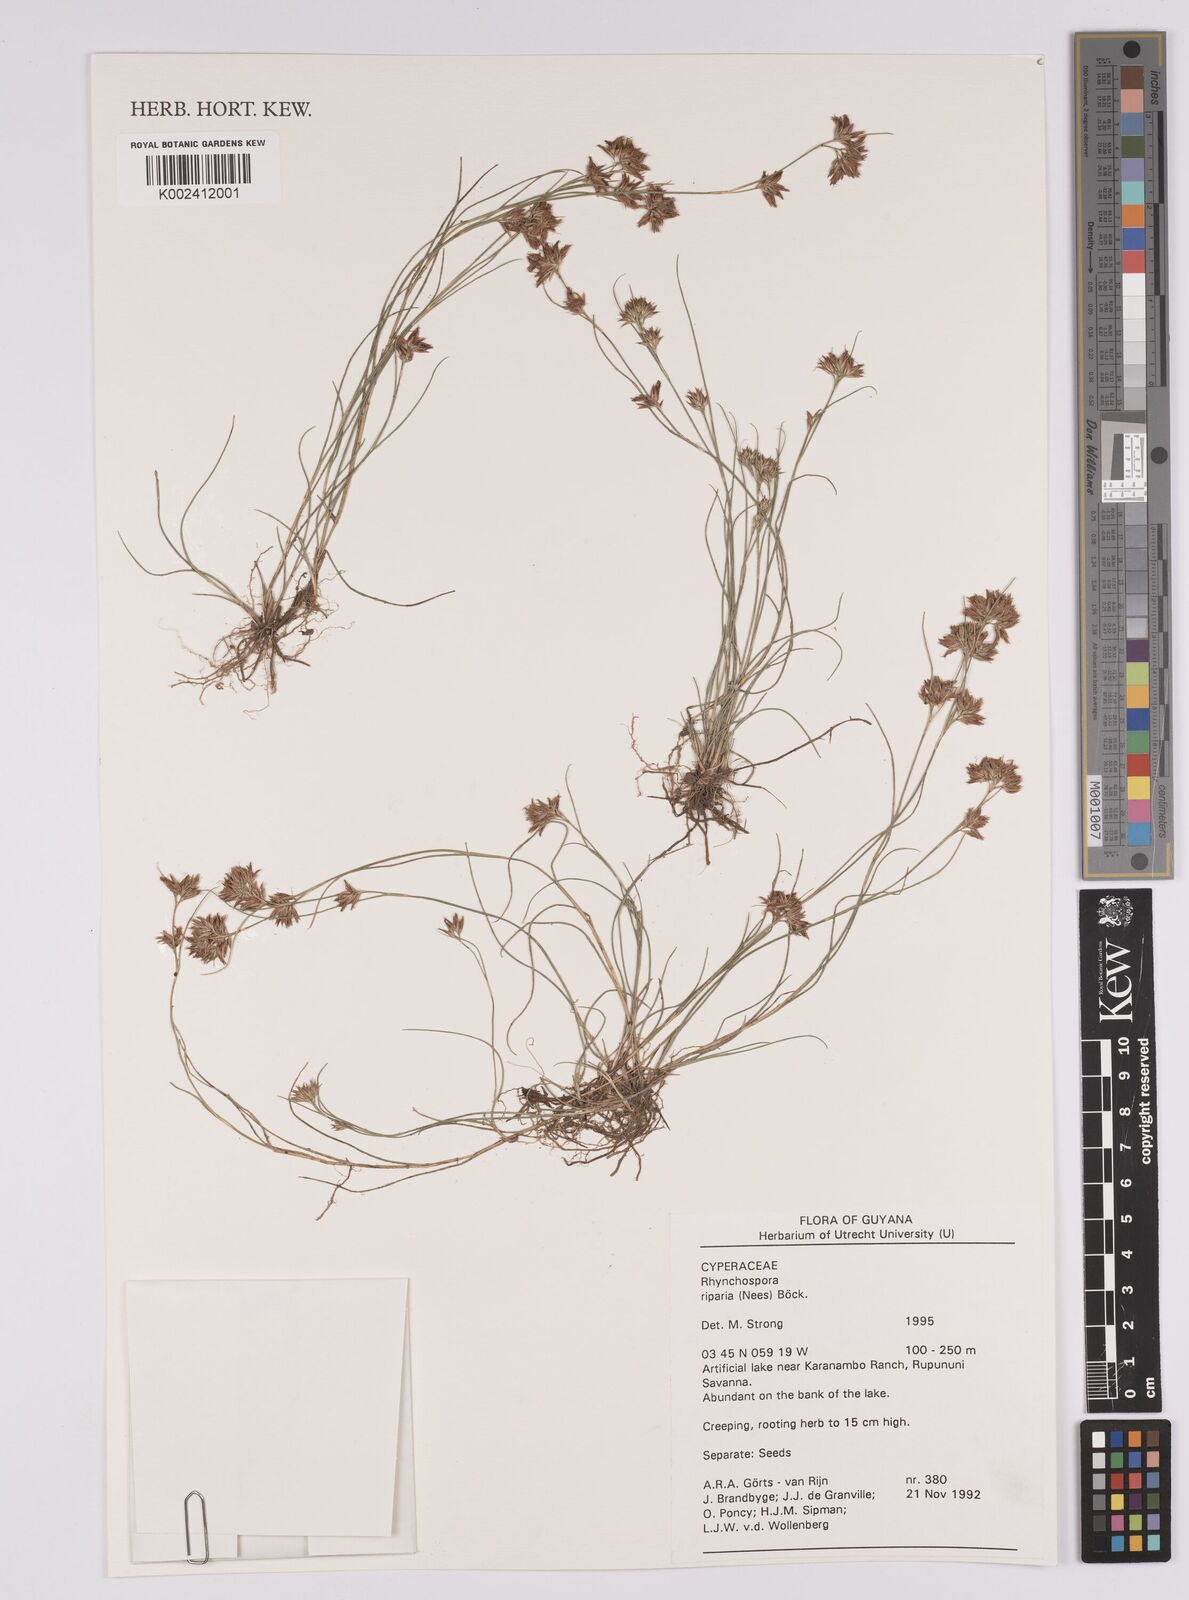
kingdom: Plantae
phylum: Tracheophyta
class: Liliopsida
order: Poales
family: Cyperaceae
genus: Rhynchospora
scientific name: Rhynchospora riparia
